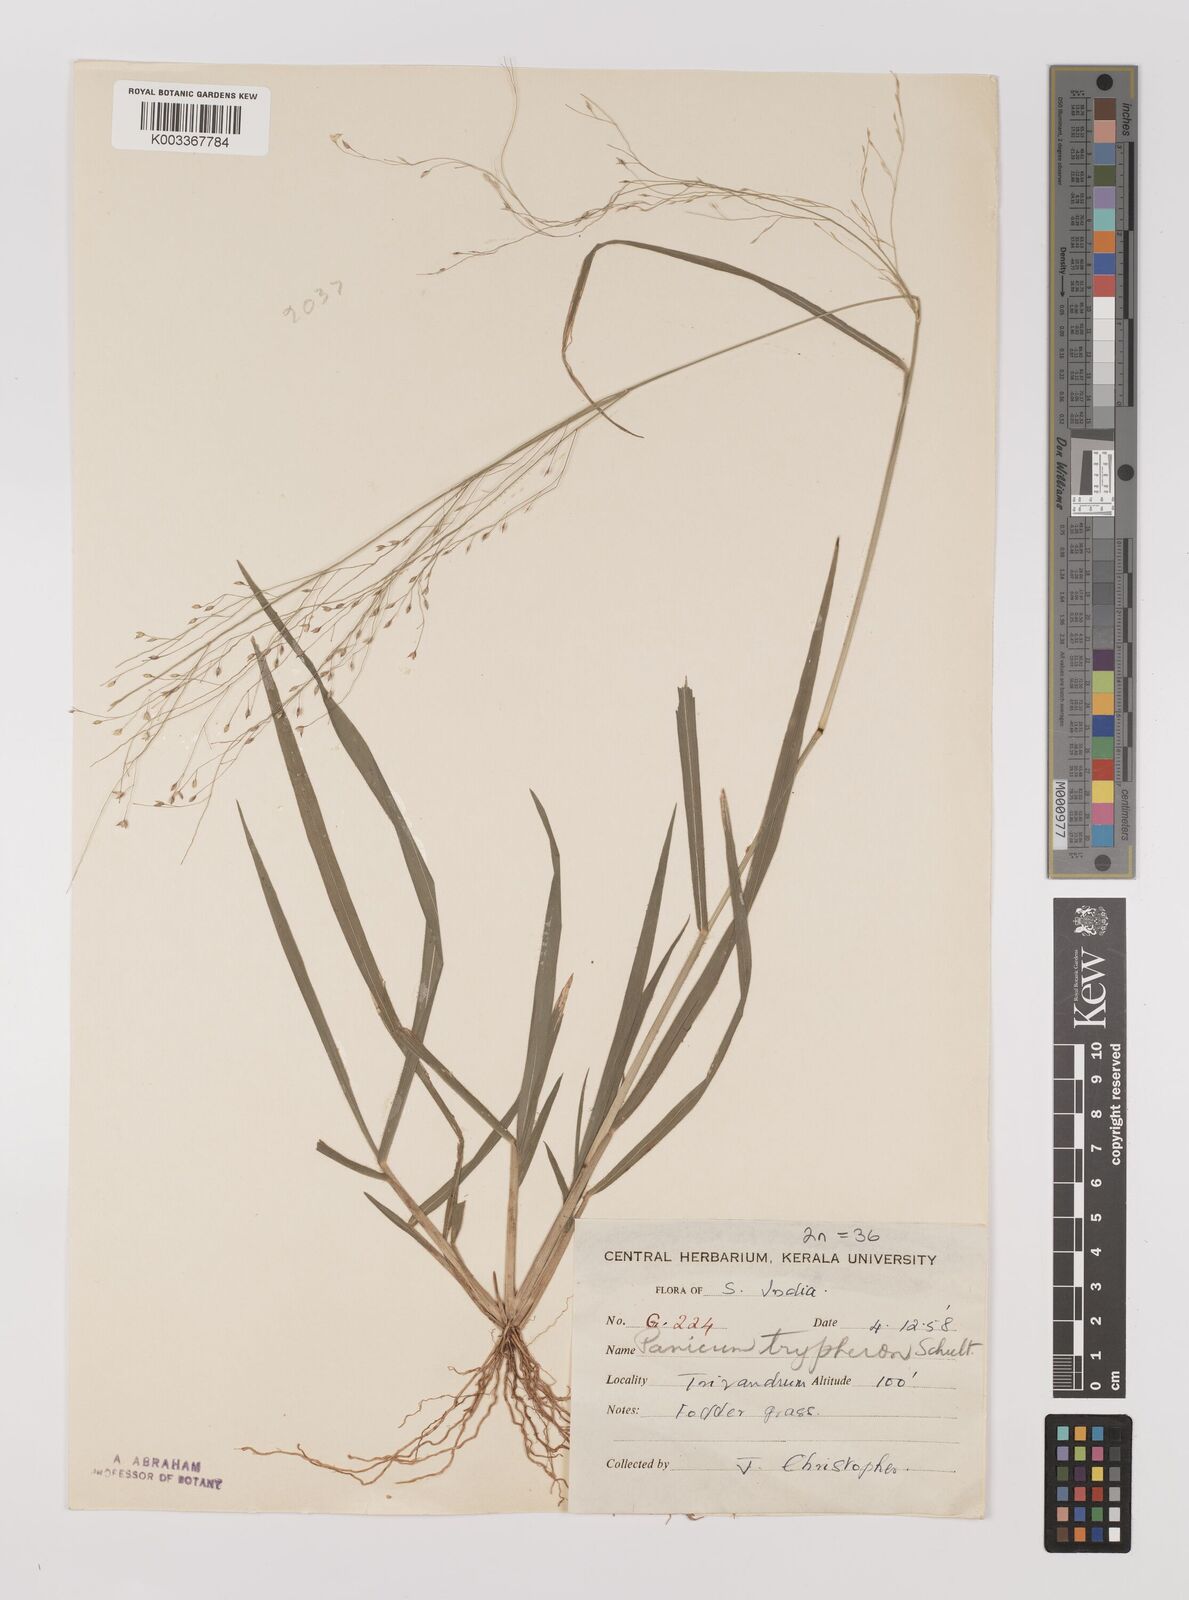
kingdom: Plantae
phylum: Tracheophyta
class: Liliopsida
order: Poales
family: Poaceae
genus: Panicum
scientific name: Panicum curviflorum
